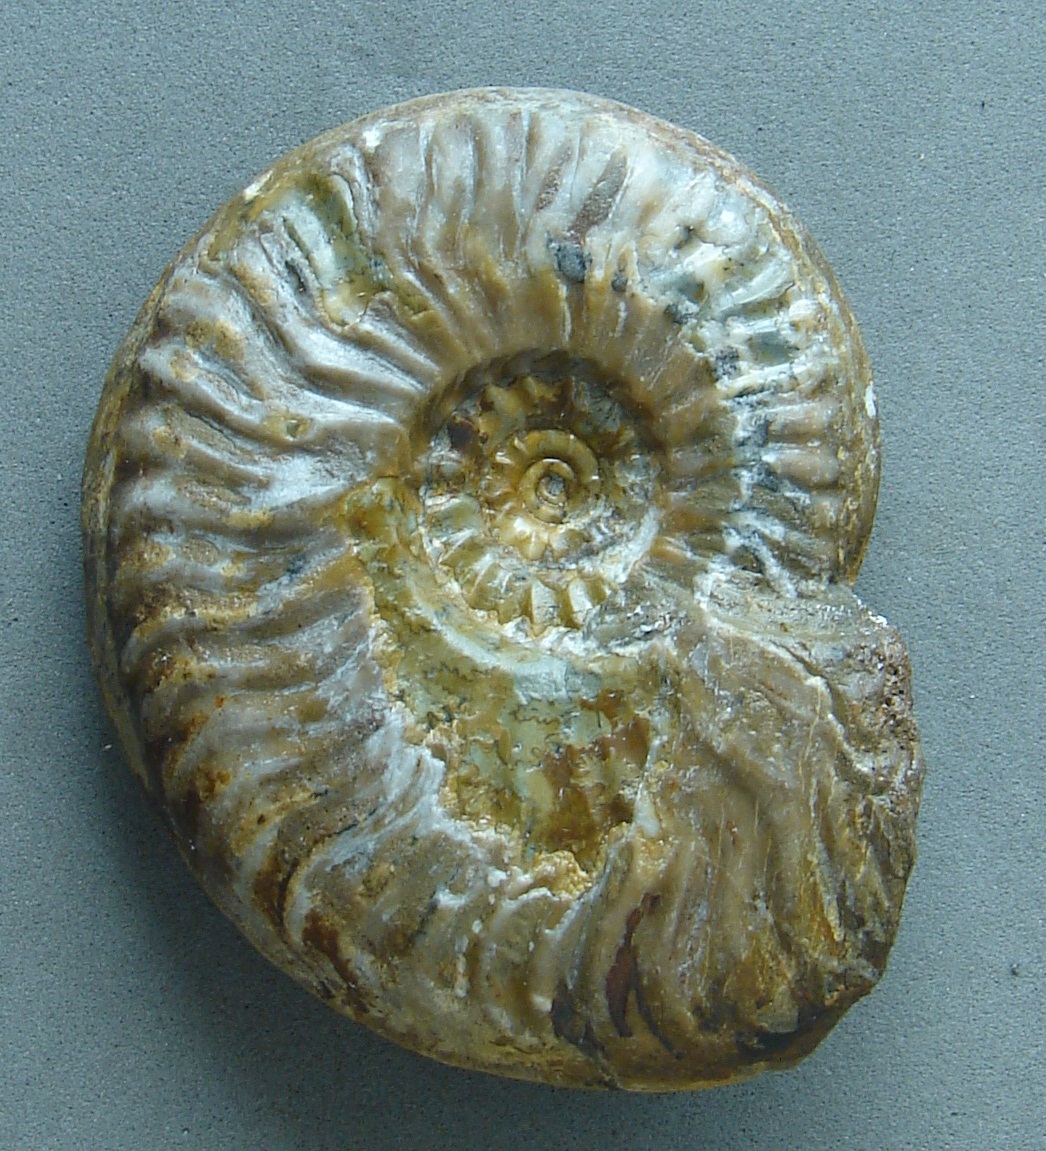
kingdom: Animalia
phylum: Mollusca
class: Cephalopoda
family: Graphoceratidae
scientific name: Graphoceratidae
